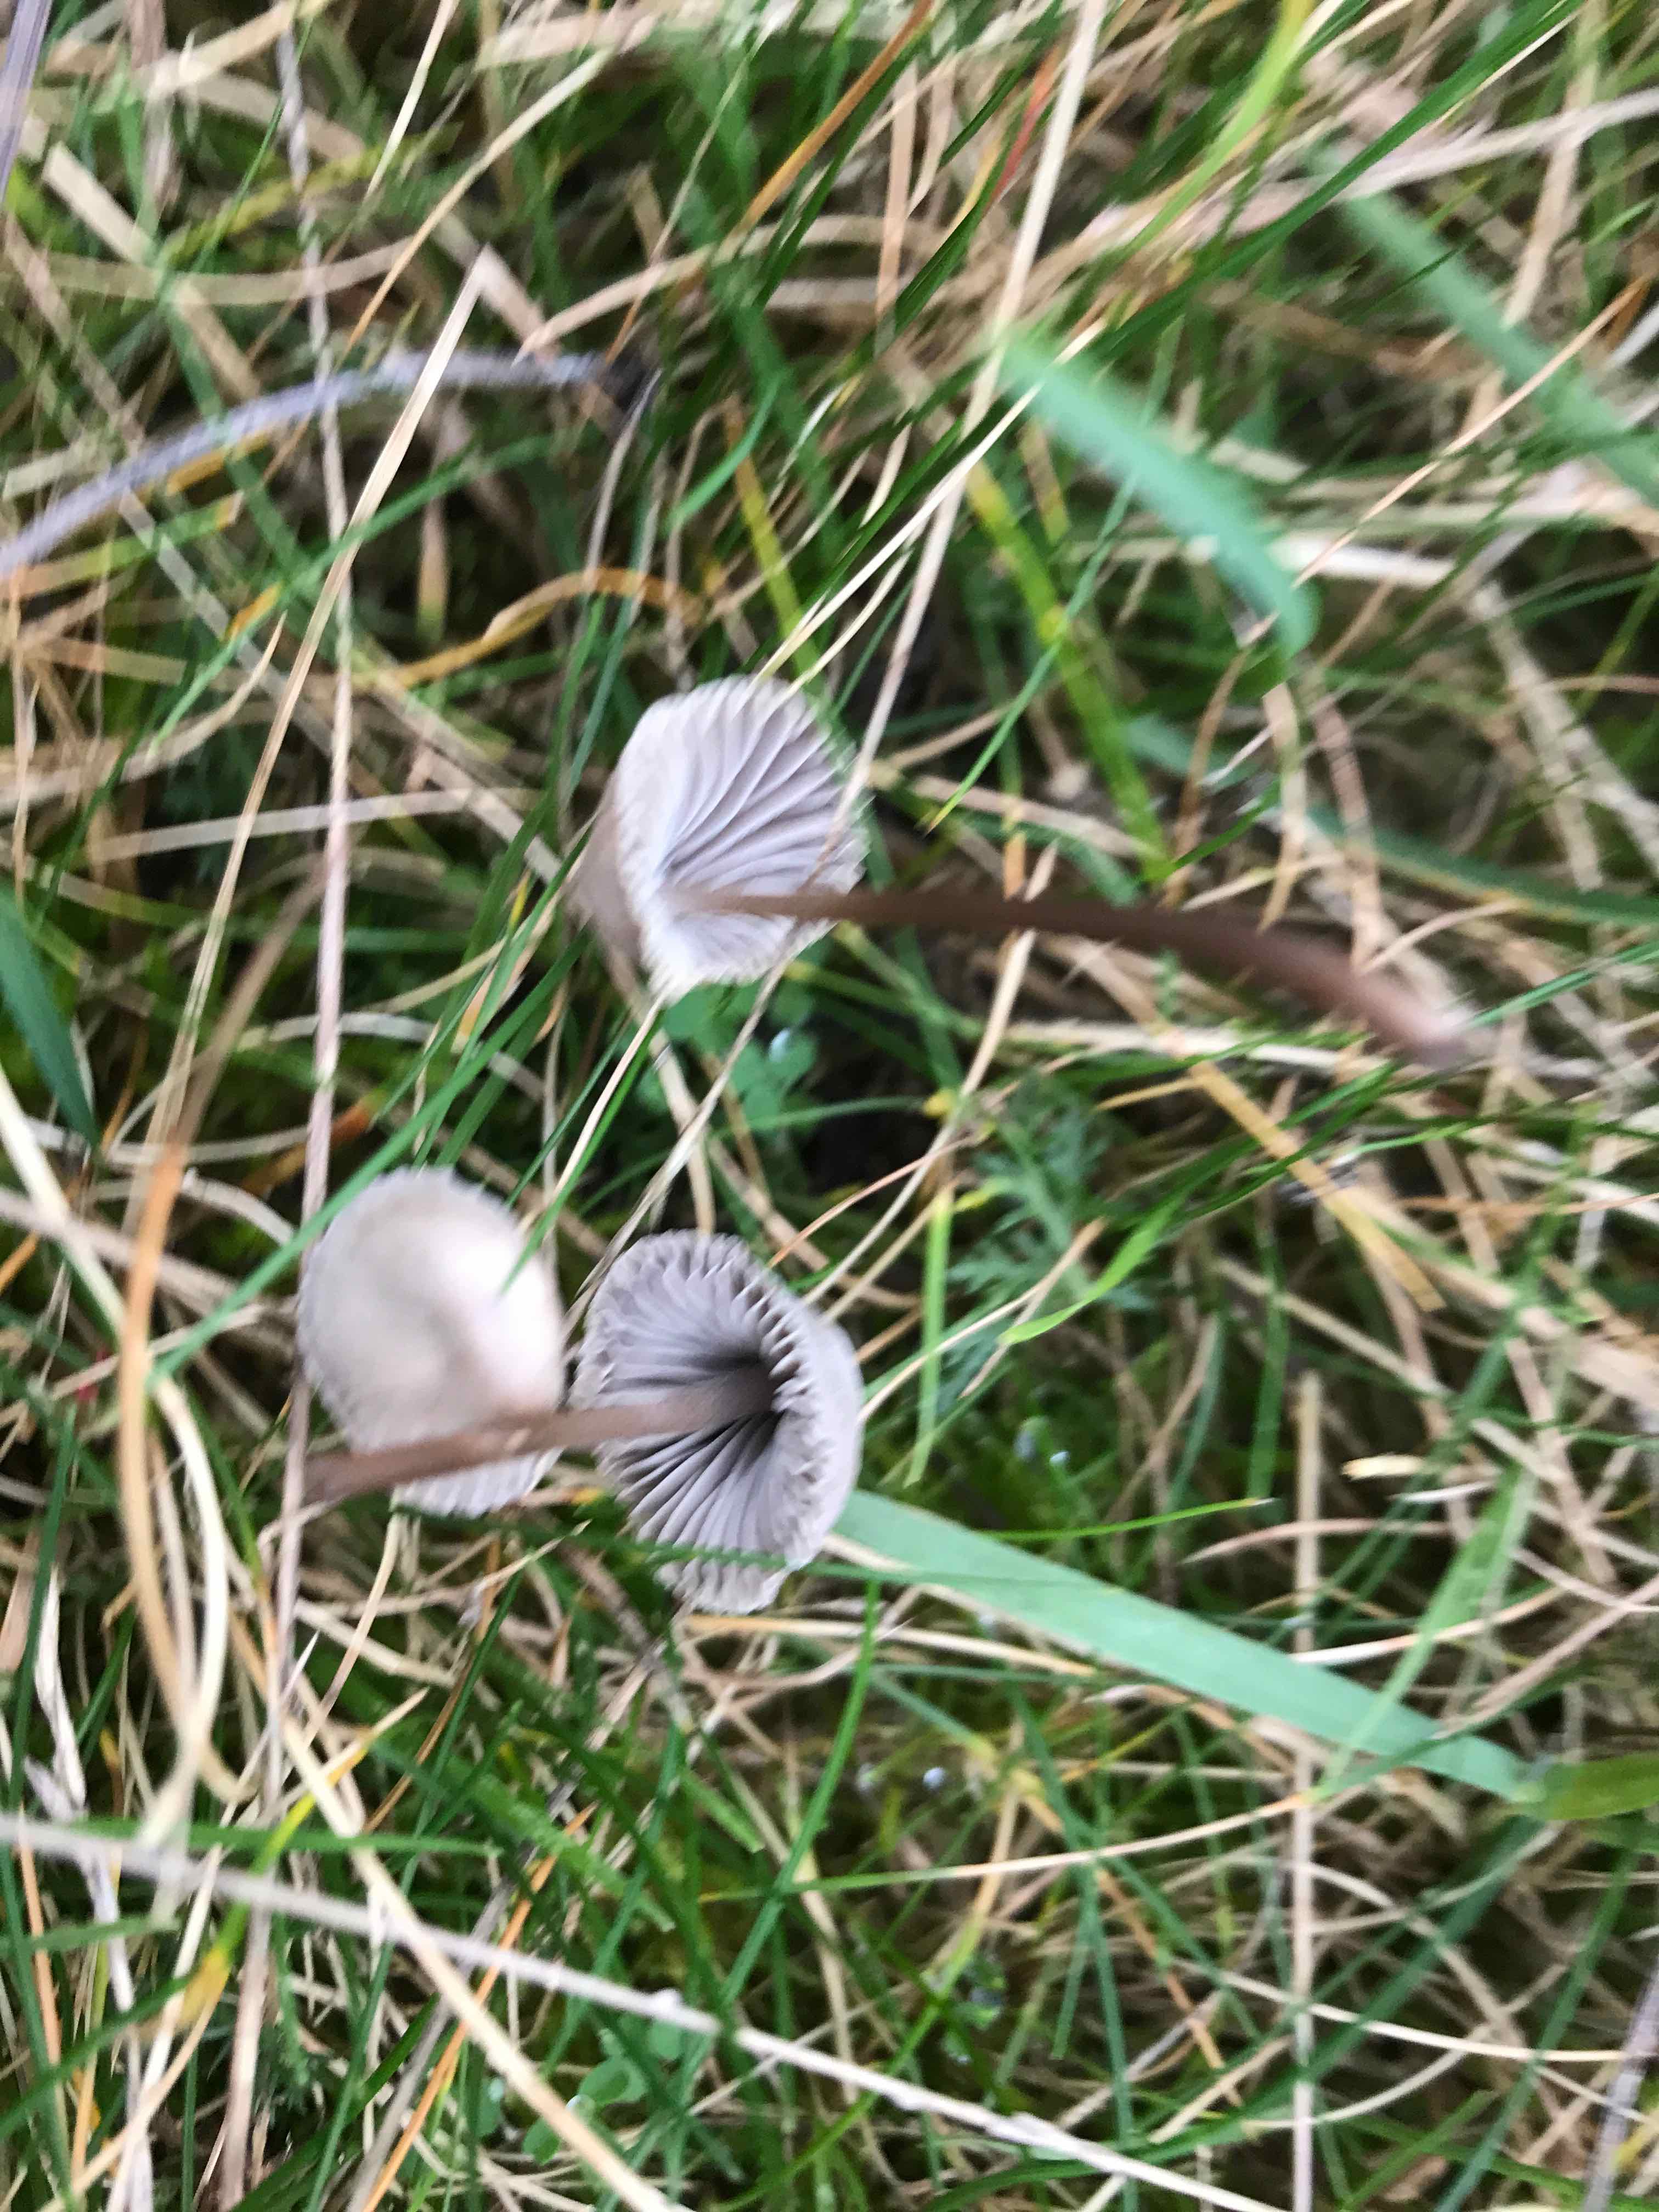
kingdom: Fungi
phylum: Basidiomycota
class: Agaricomycetes
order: Agaricales
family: Mycenaceae
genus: Mycena
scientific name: Mycena leptocephala
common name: klor-huesvamp
